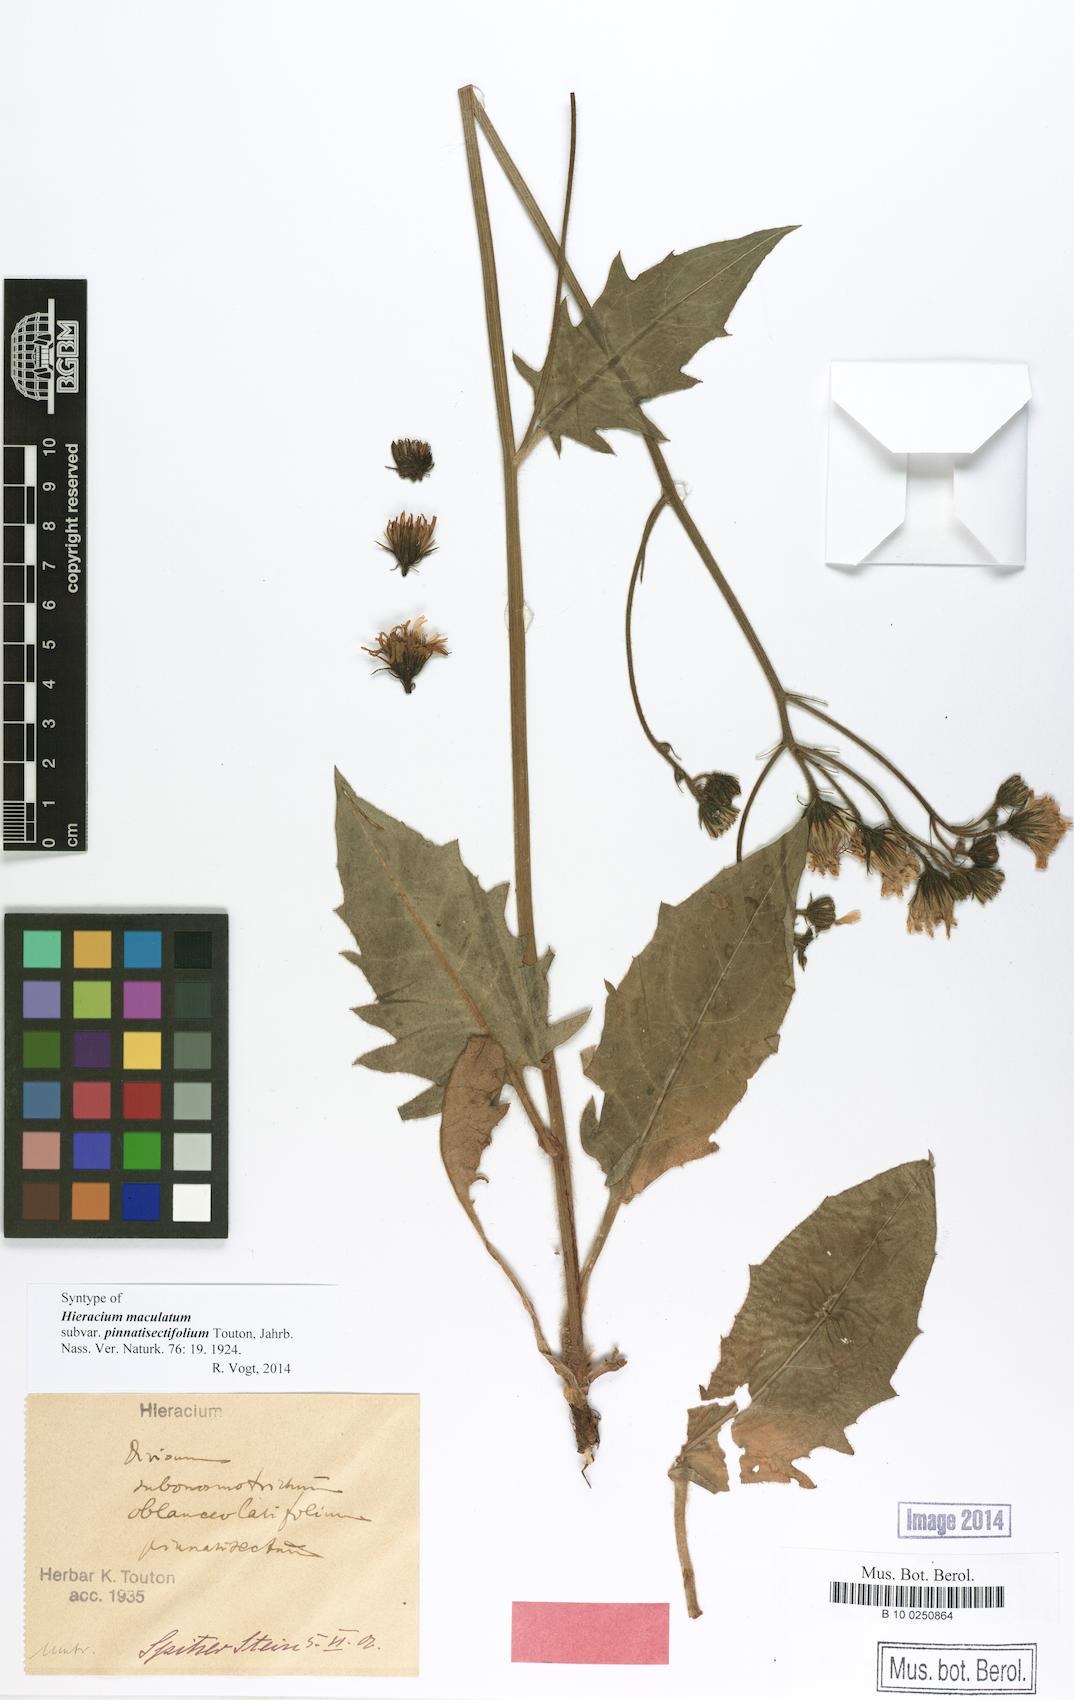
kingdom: Plantae
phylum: Tracheophyta
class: Magnoliopsida
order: Asterales
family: Asteraceae
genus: Hieracium
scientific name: Hieracium maculatum
